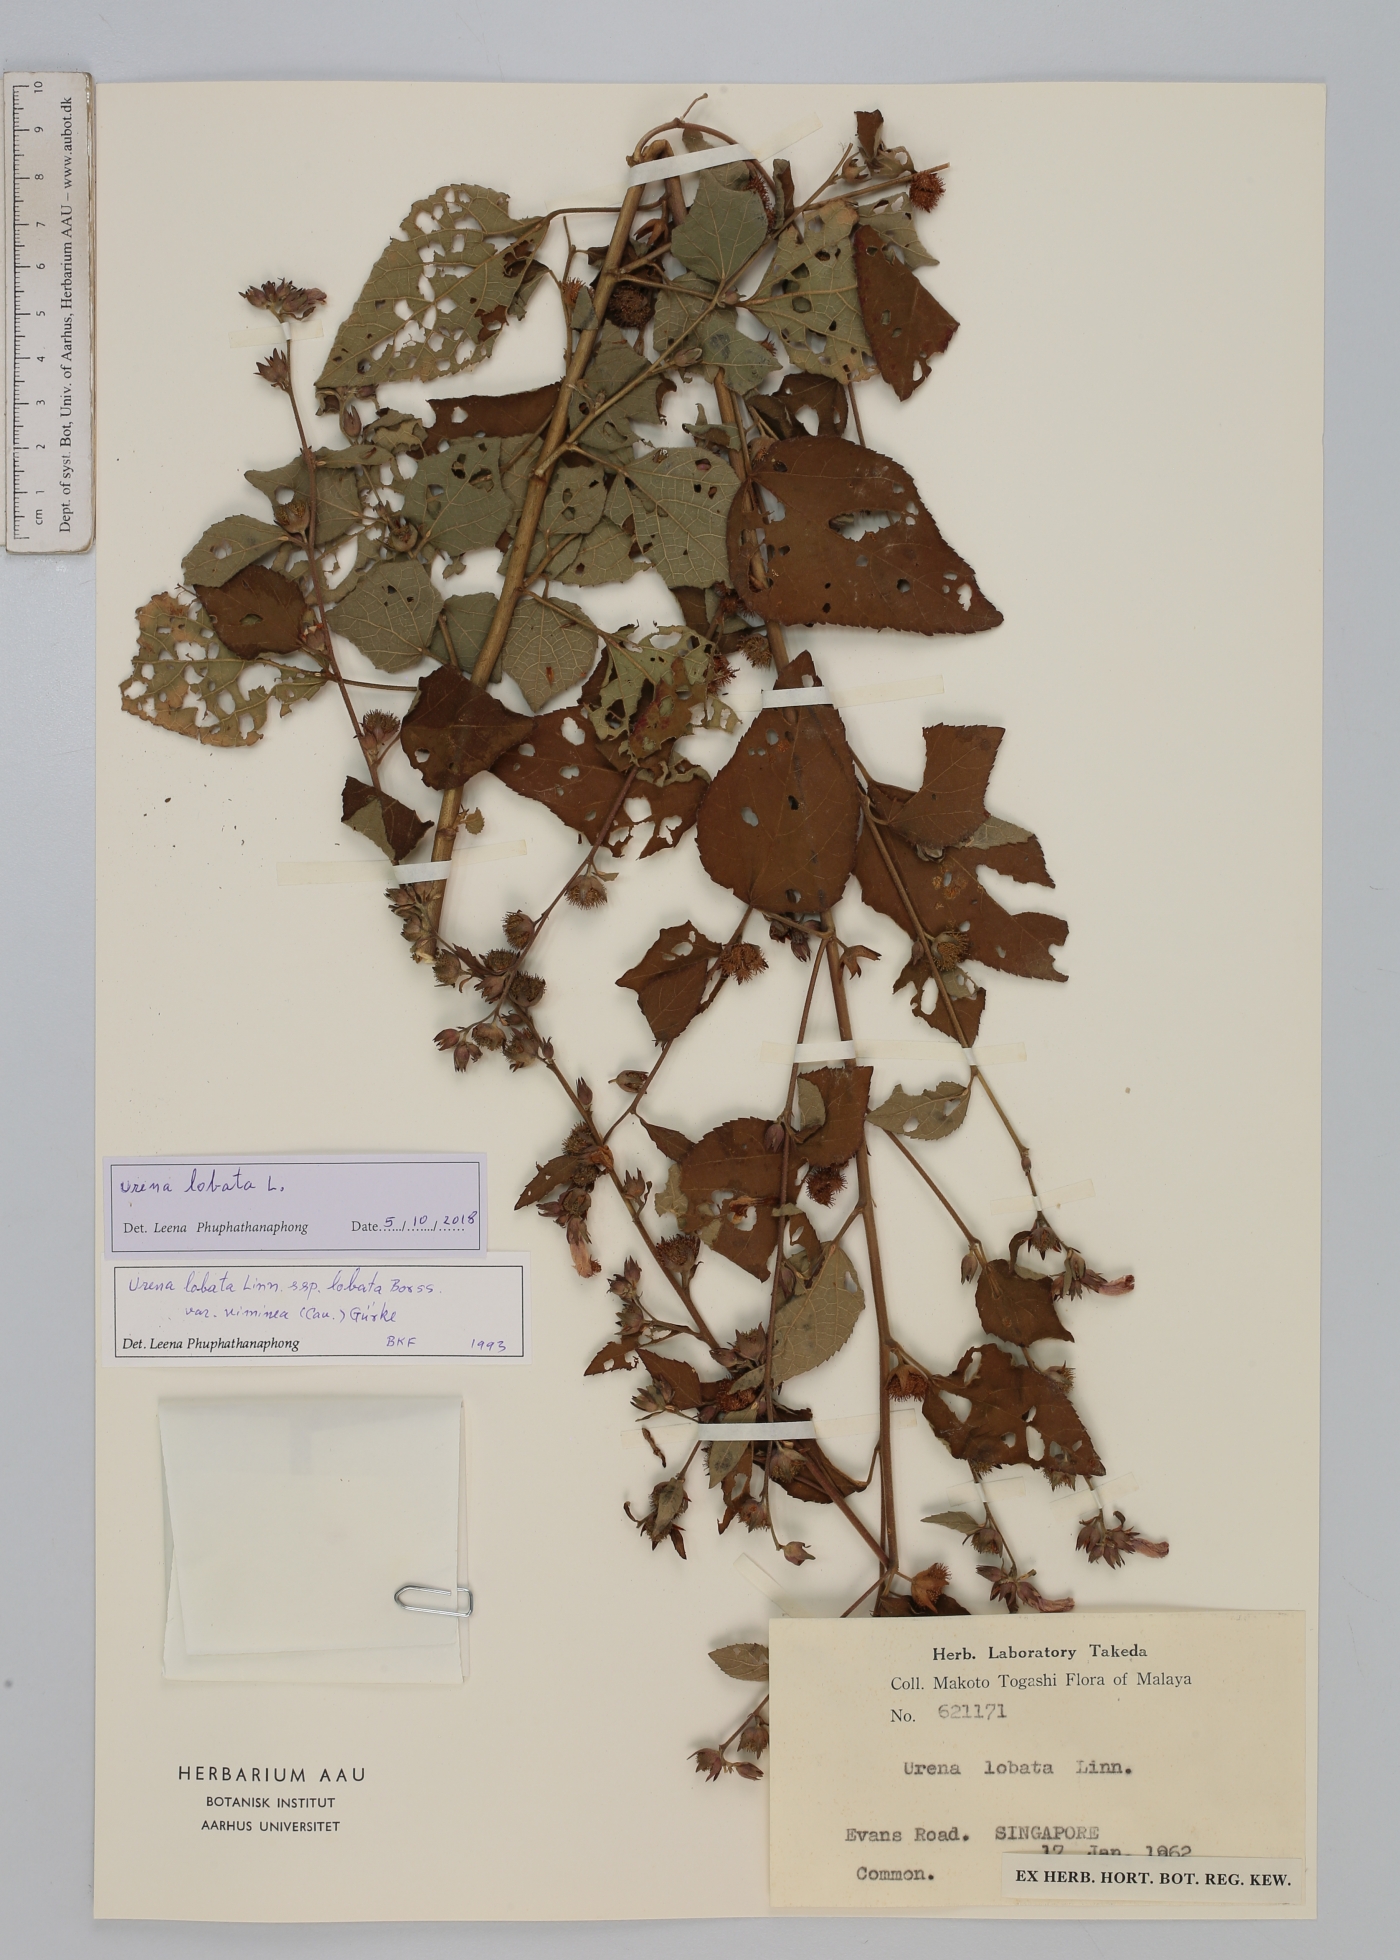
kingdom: Plantae
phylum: Tracheophyta
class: Magnoliopsida
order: Malvales
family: Malvaceae
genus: Urena
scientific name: Urena lobata
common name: Caesarweed
